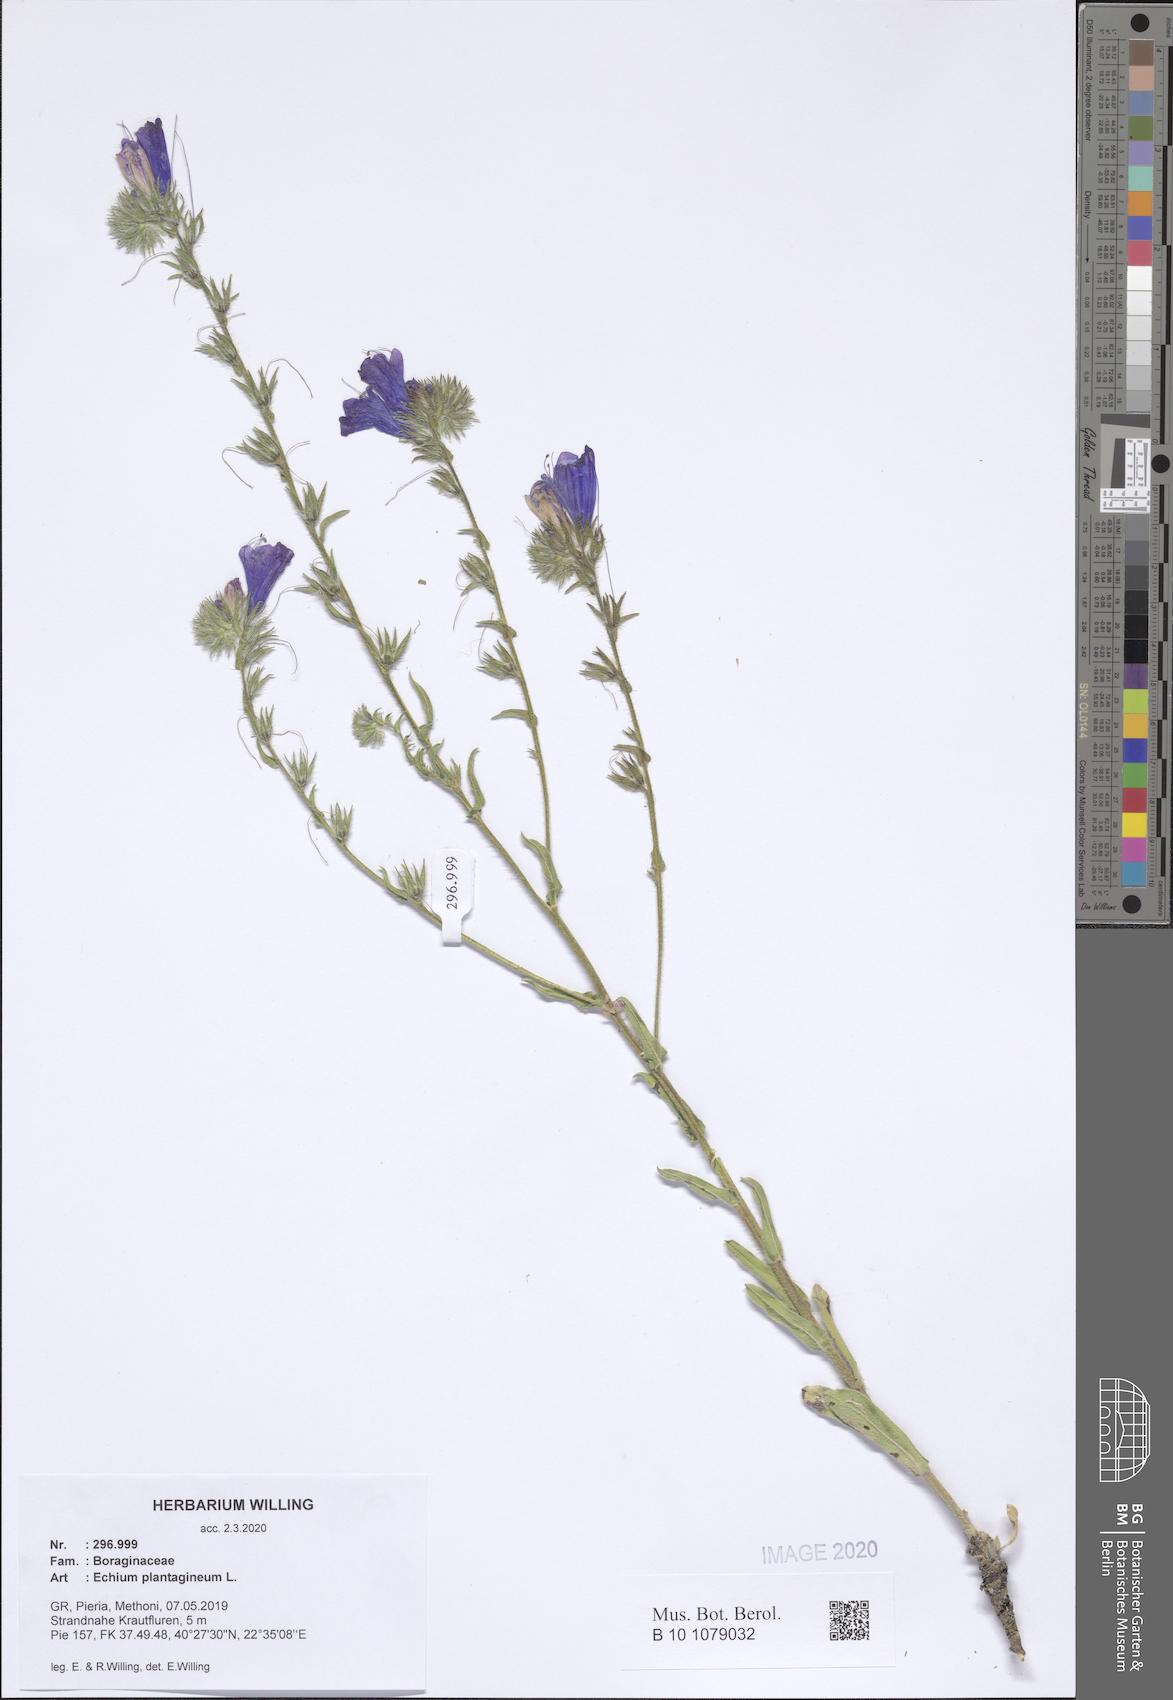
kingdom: Plantae
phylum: Tracheophyta
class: Magnoliopsida
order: Boraginales
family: Boraginaceae
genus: Echium
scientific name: Echium plantagineum
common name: Purple viper's-bugloss
